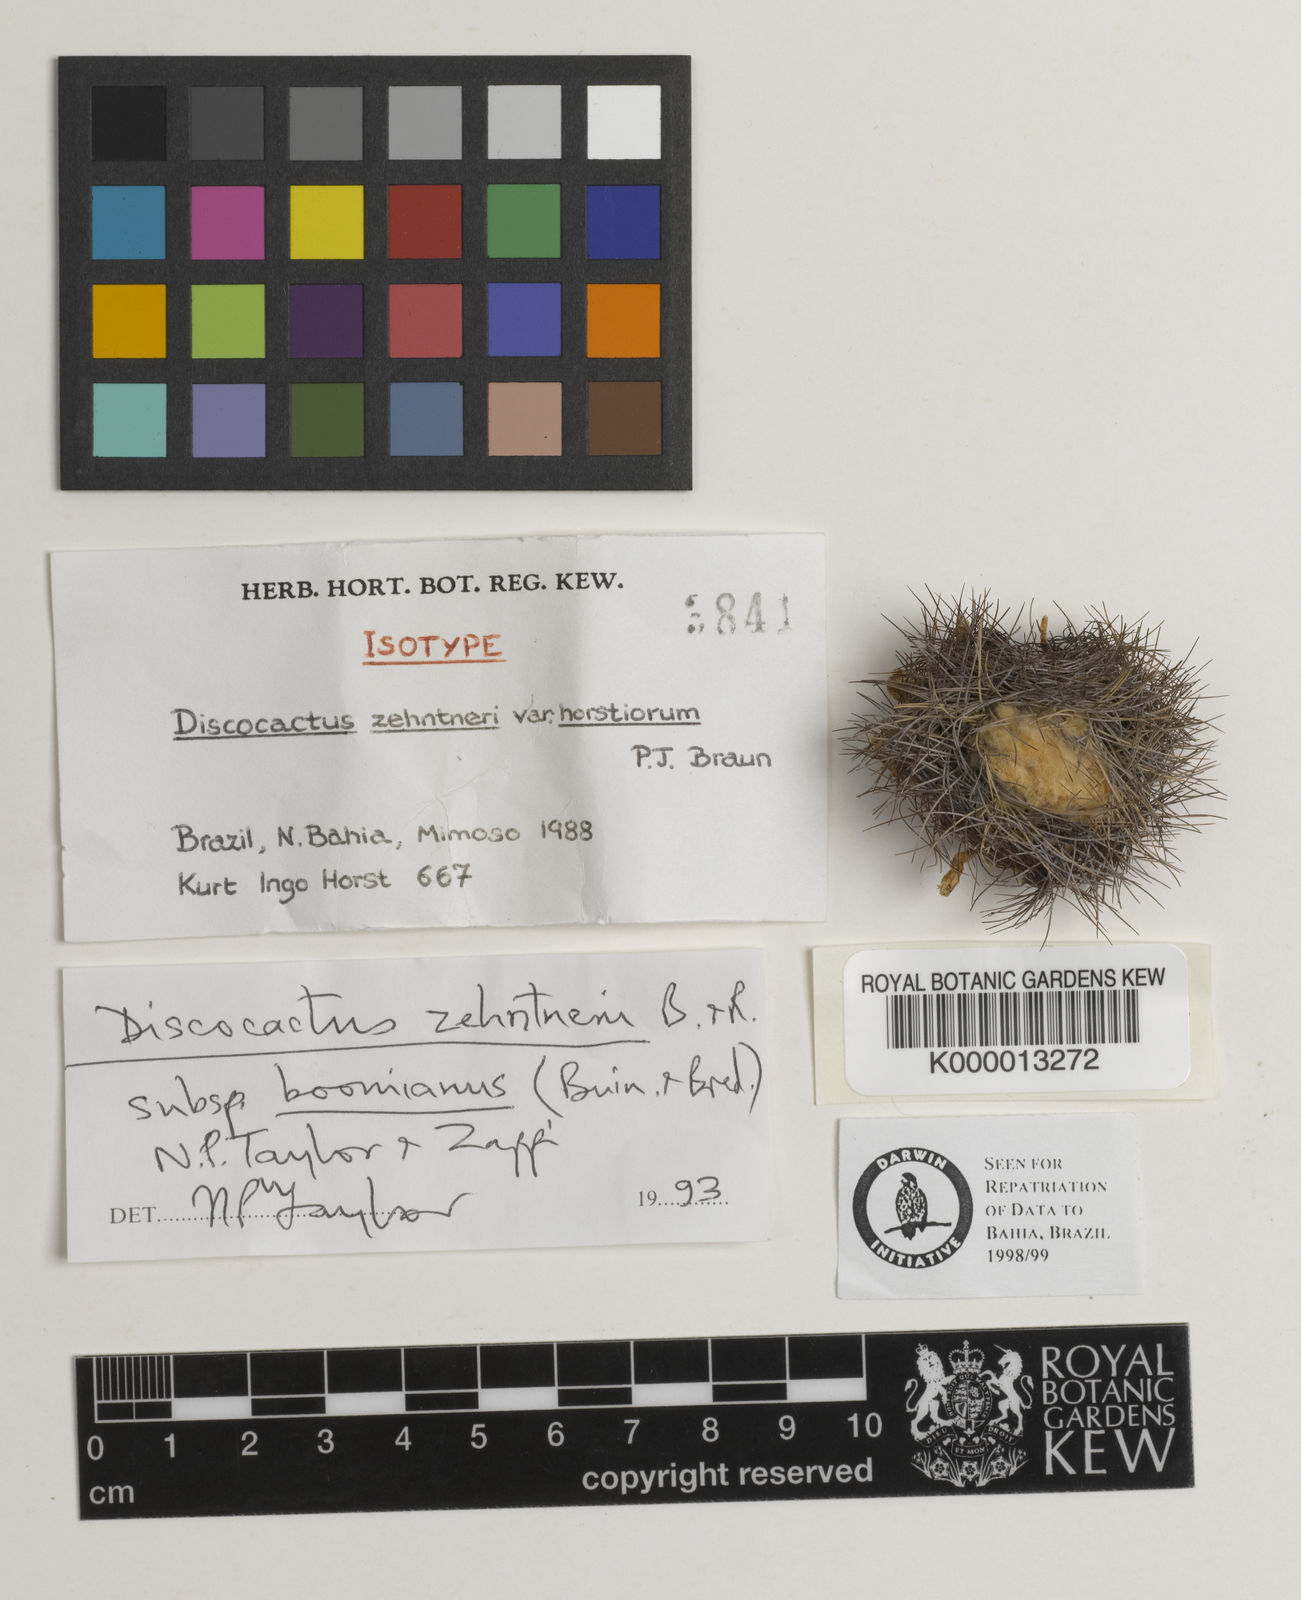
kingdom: Plantae
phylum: Tracheophyta
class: Magnoliopsida
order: Caryophyllales
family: Cactaceae
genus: Discocactus
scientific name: Discocactus zehntneri
